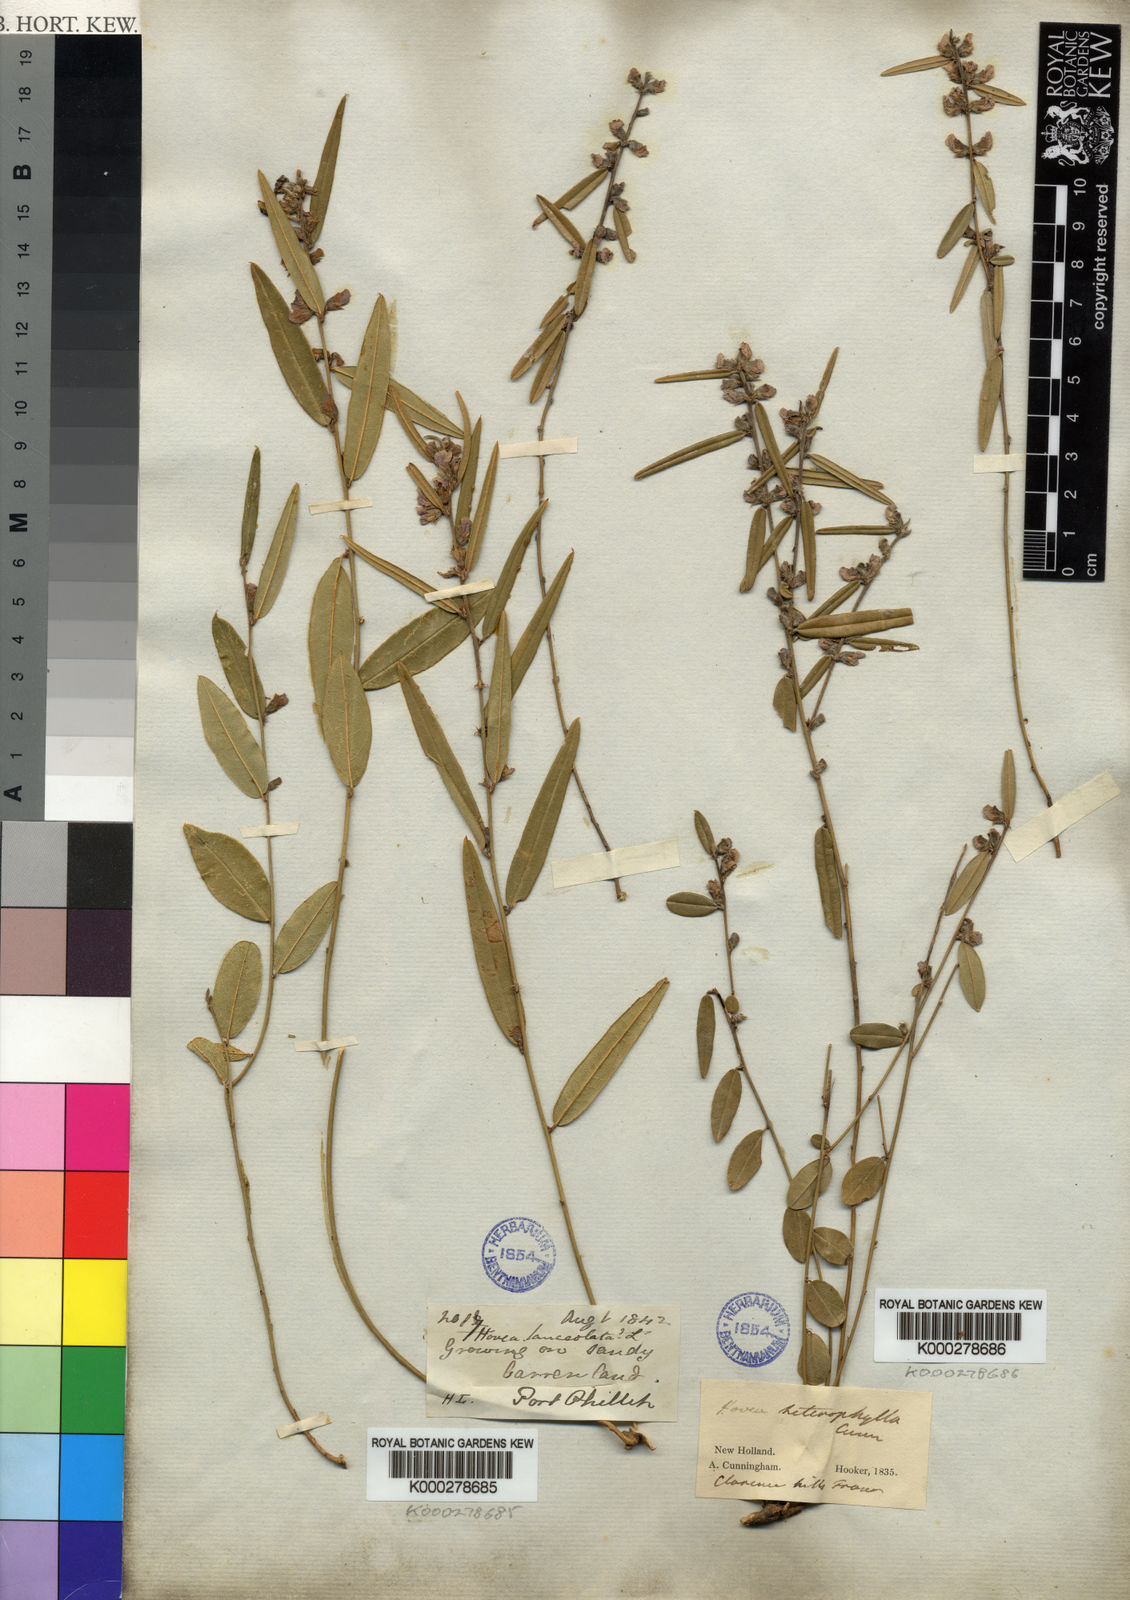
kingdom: Plantae
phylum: Tracheophyta
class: Magnoliopsida
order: Fabales
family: Fabaceae
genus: Hovea
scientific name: Hovea heterophylla
